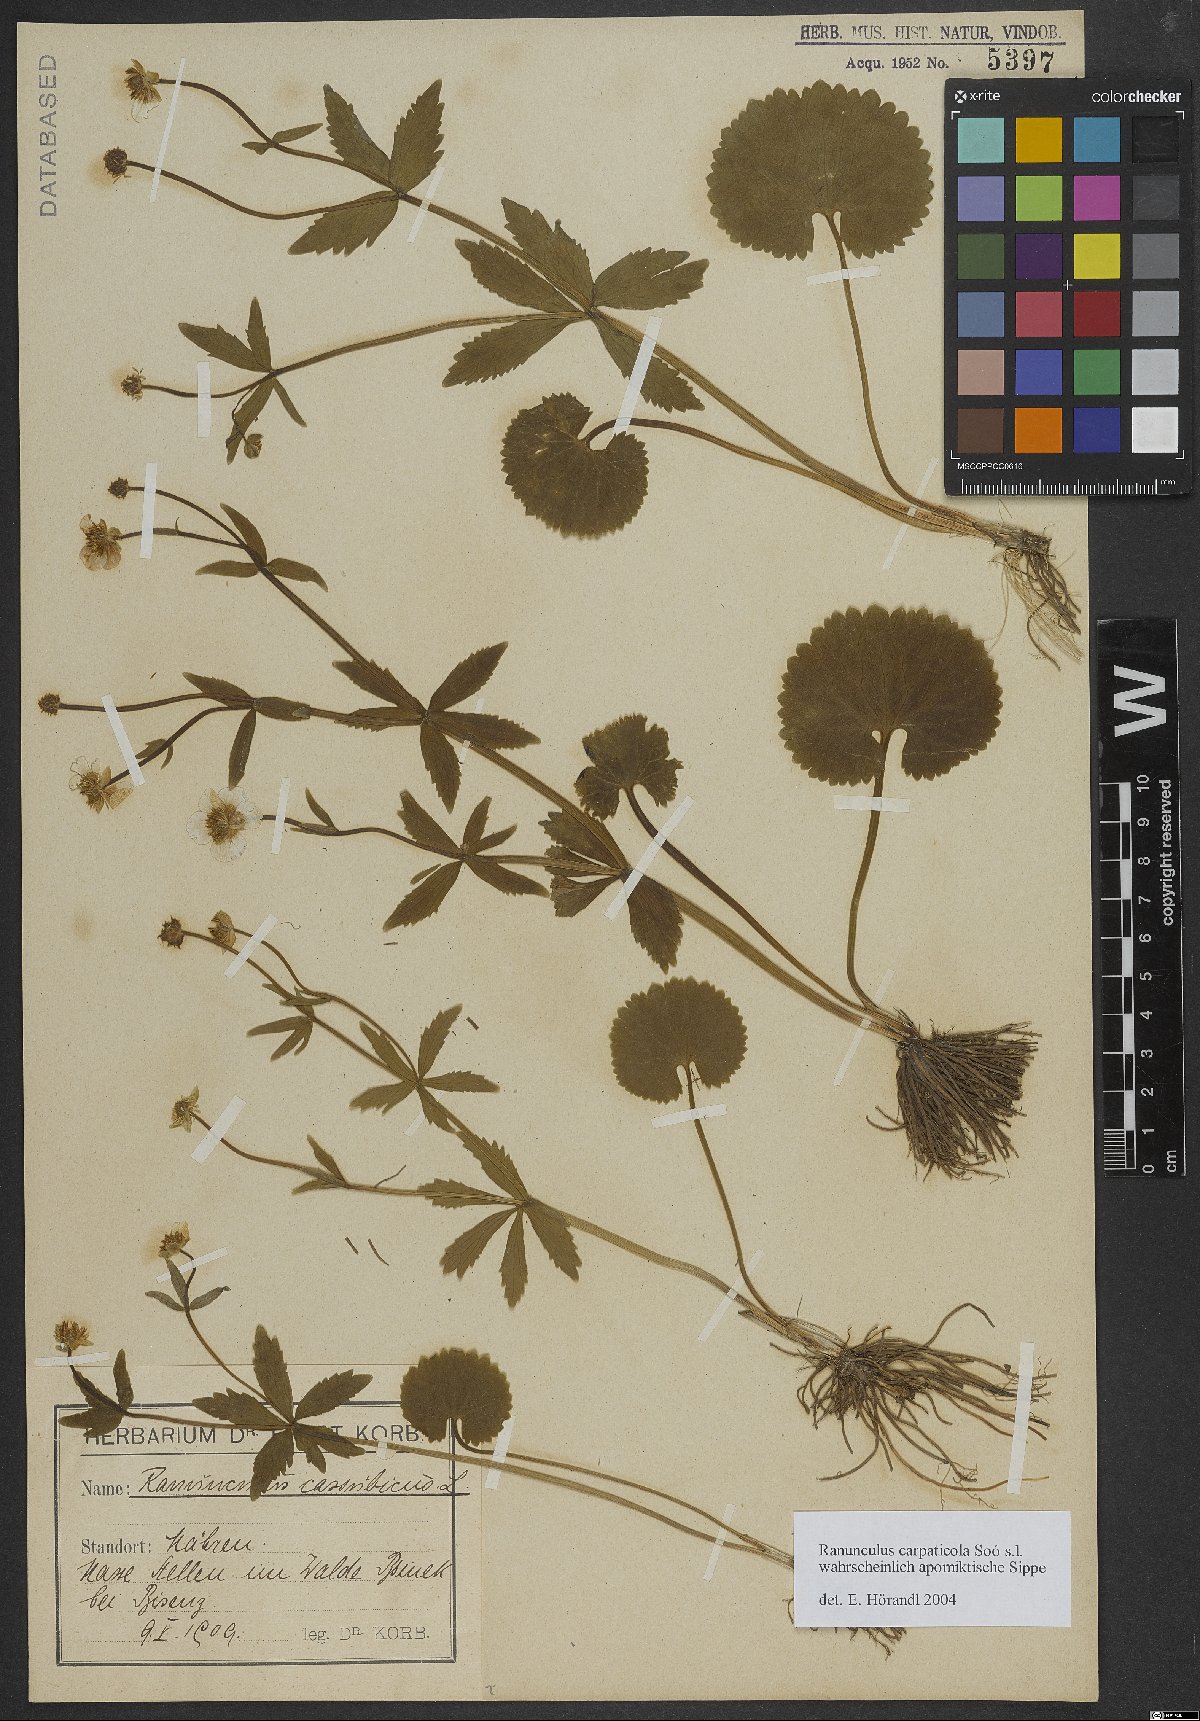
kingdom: Plantae
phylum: Tracheophyta
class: Magnoliopsida
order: Ranunculales
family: Ranunculaceae
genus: Ranunculus
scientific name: Ranunculus cassubicifolius
